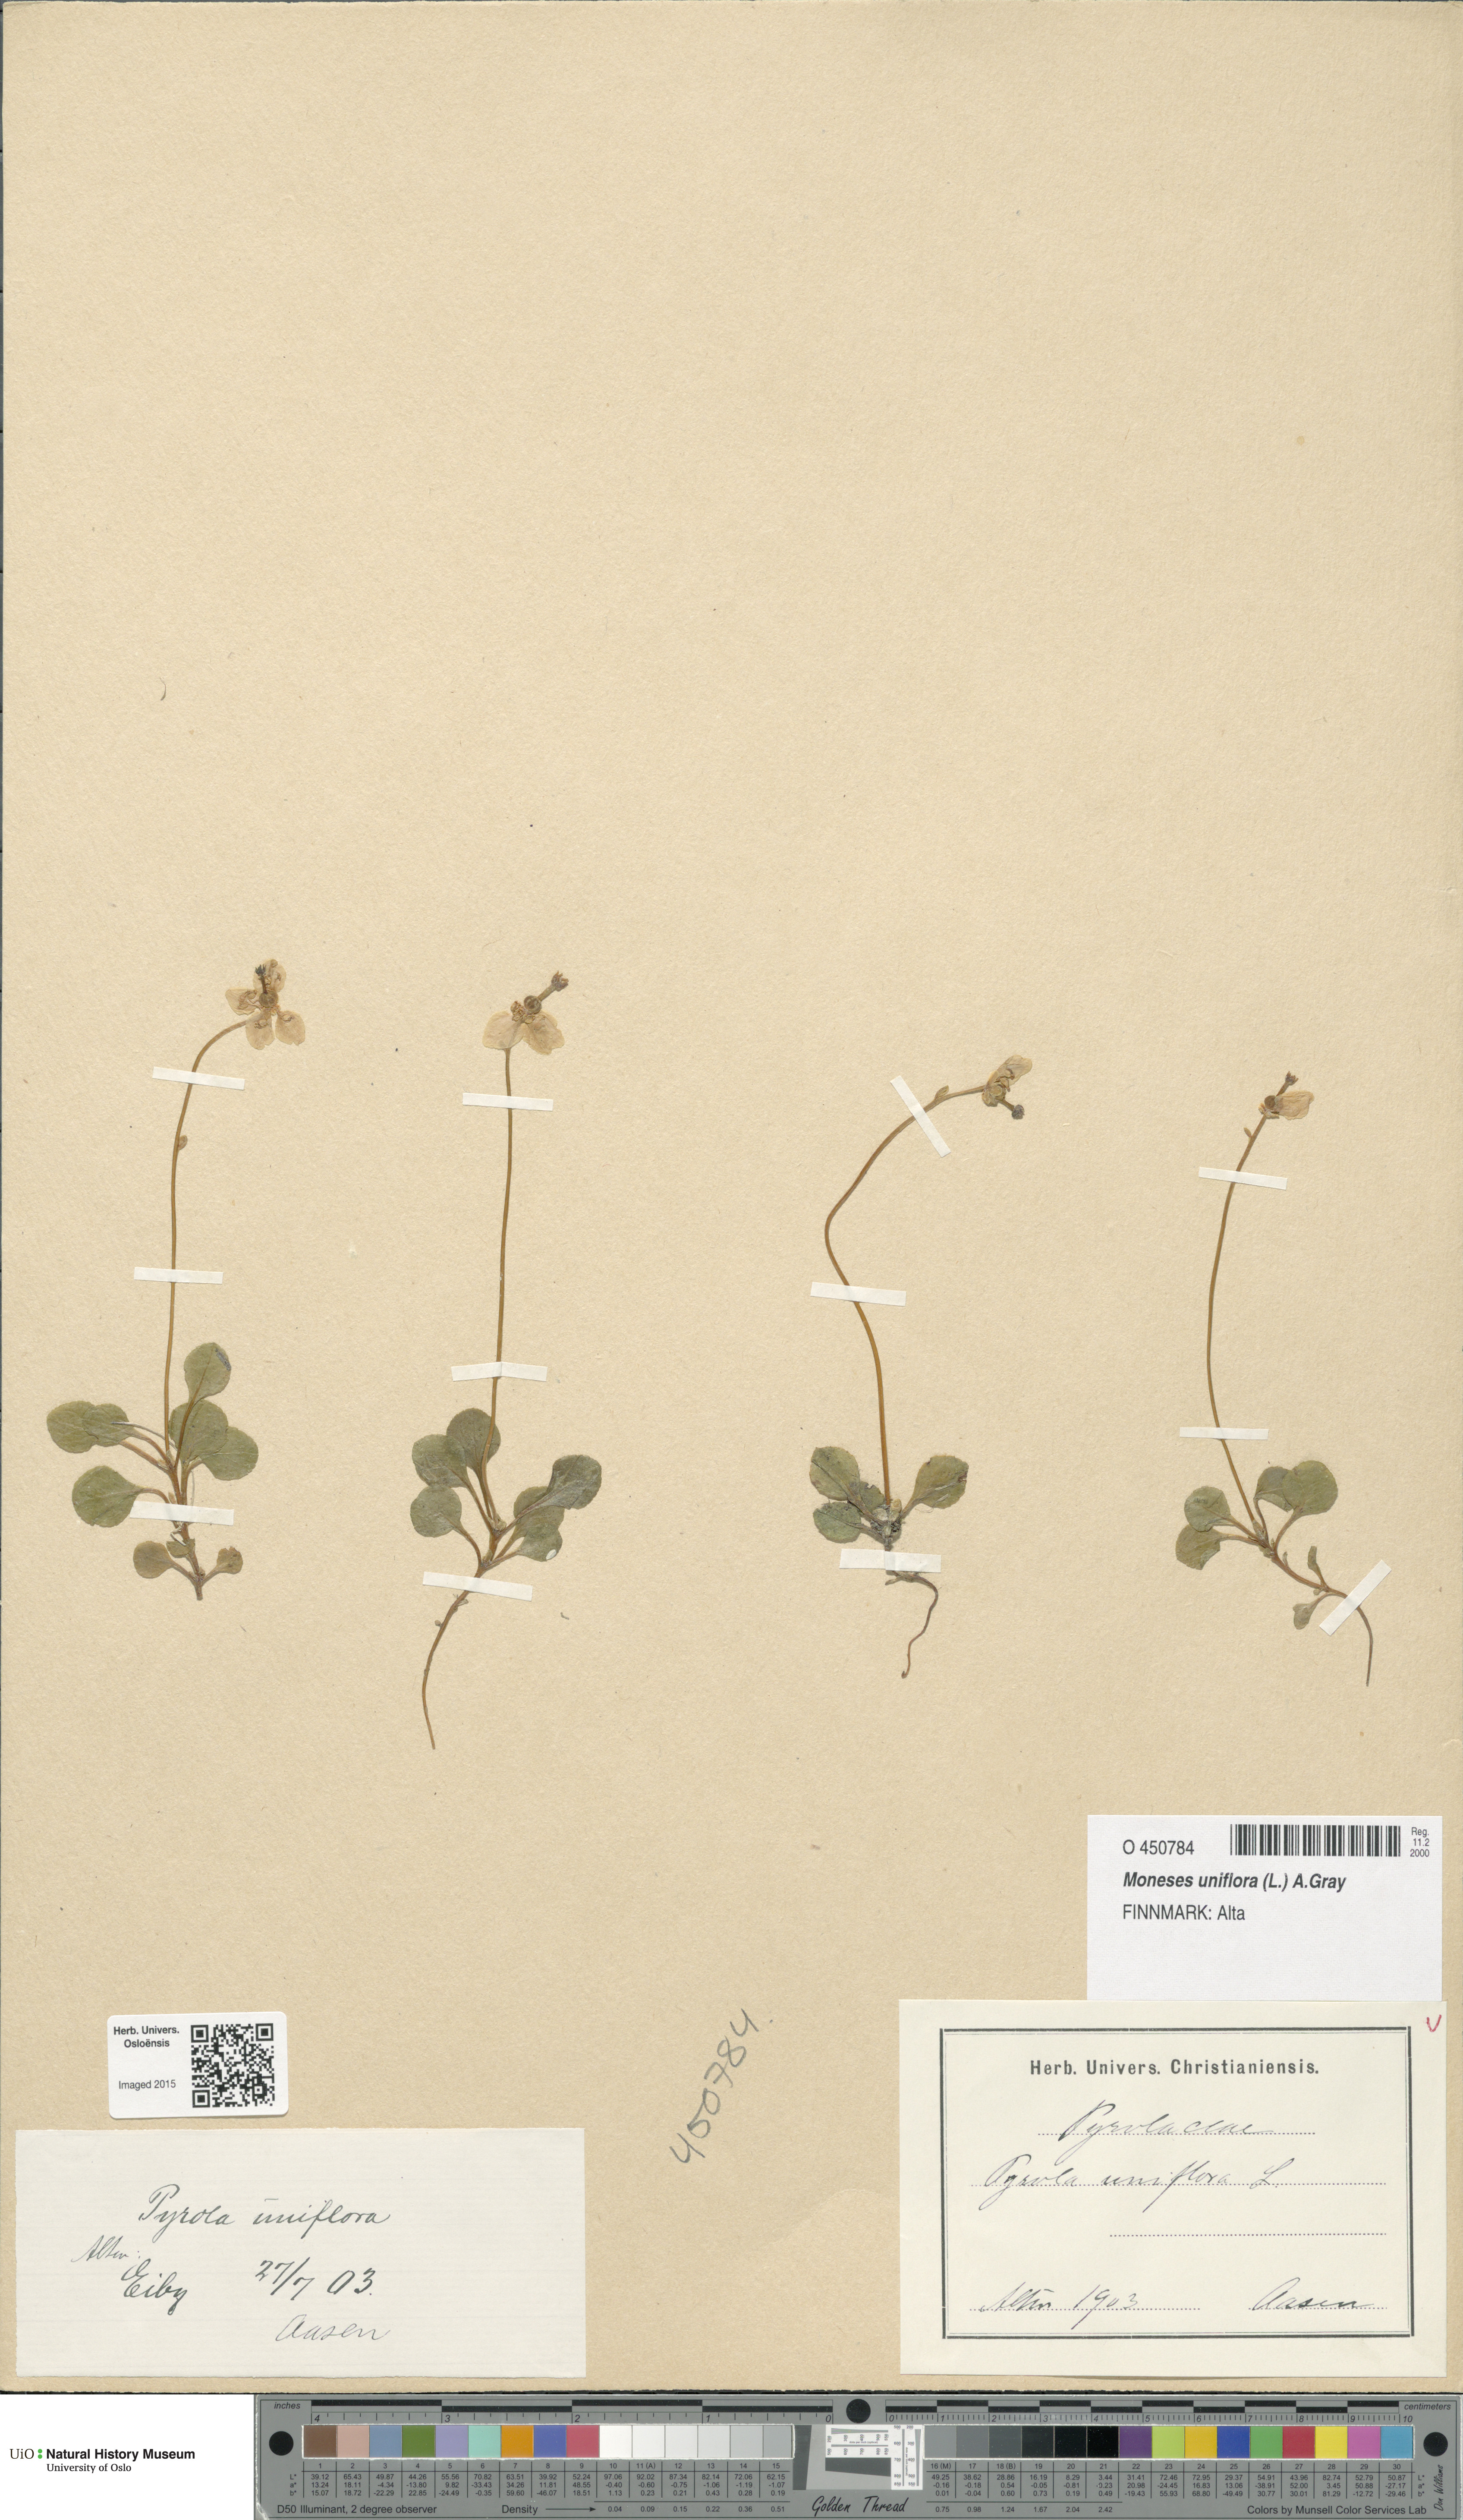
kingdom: Plantae
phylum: Tracheophyta
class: Magnoliopsida
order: Ericales
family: Ericaceae
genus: Moneses
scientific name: Moneses uniflora
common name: One-flowered wintergreen
